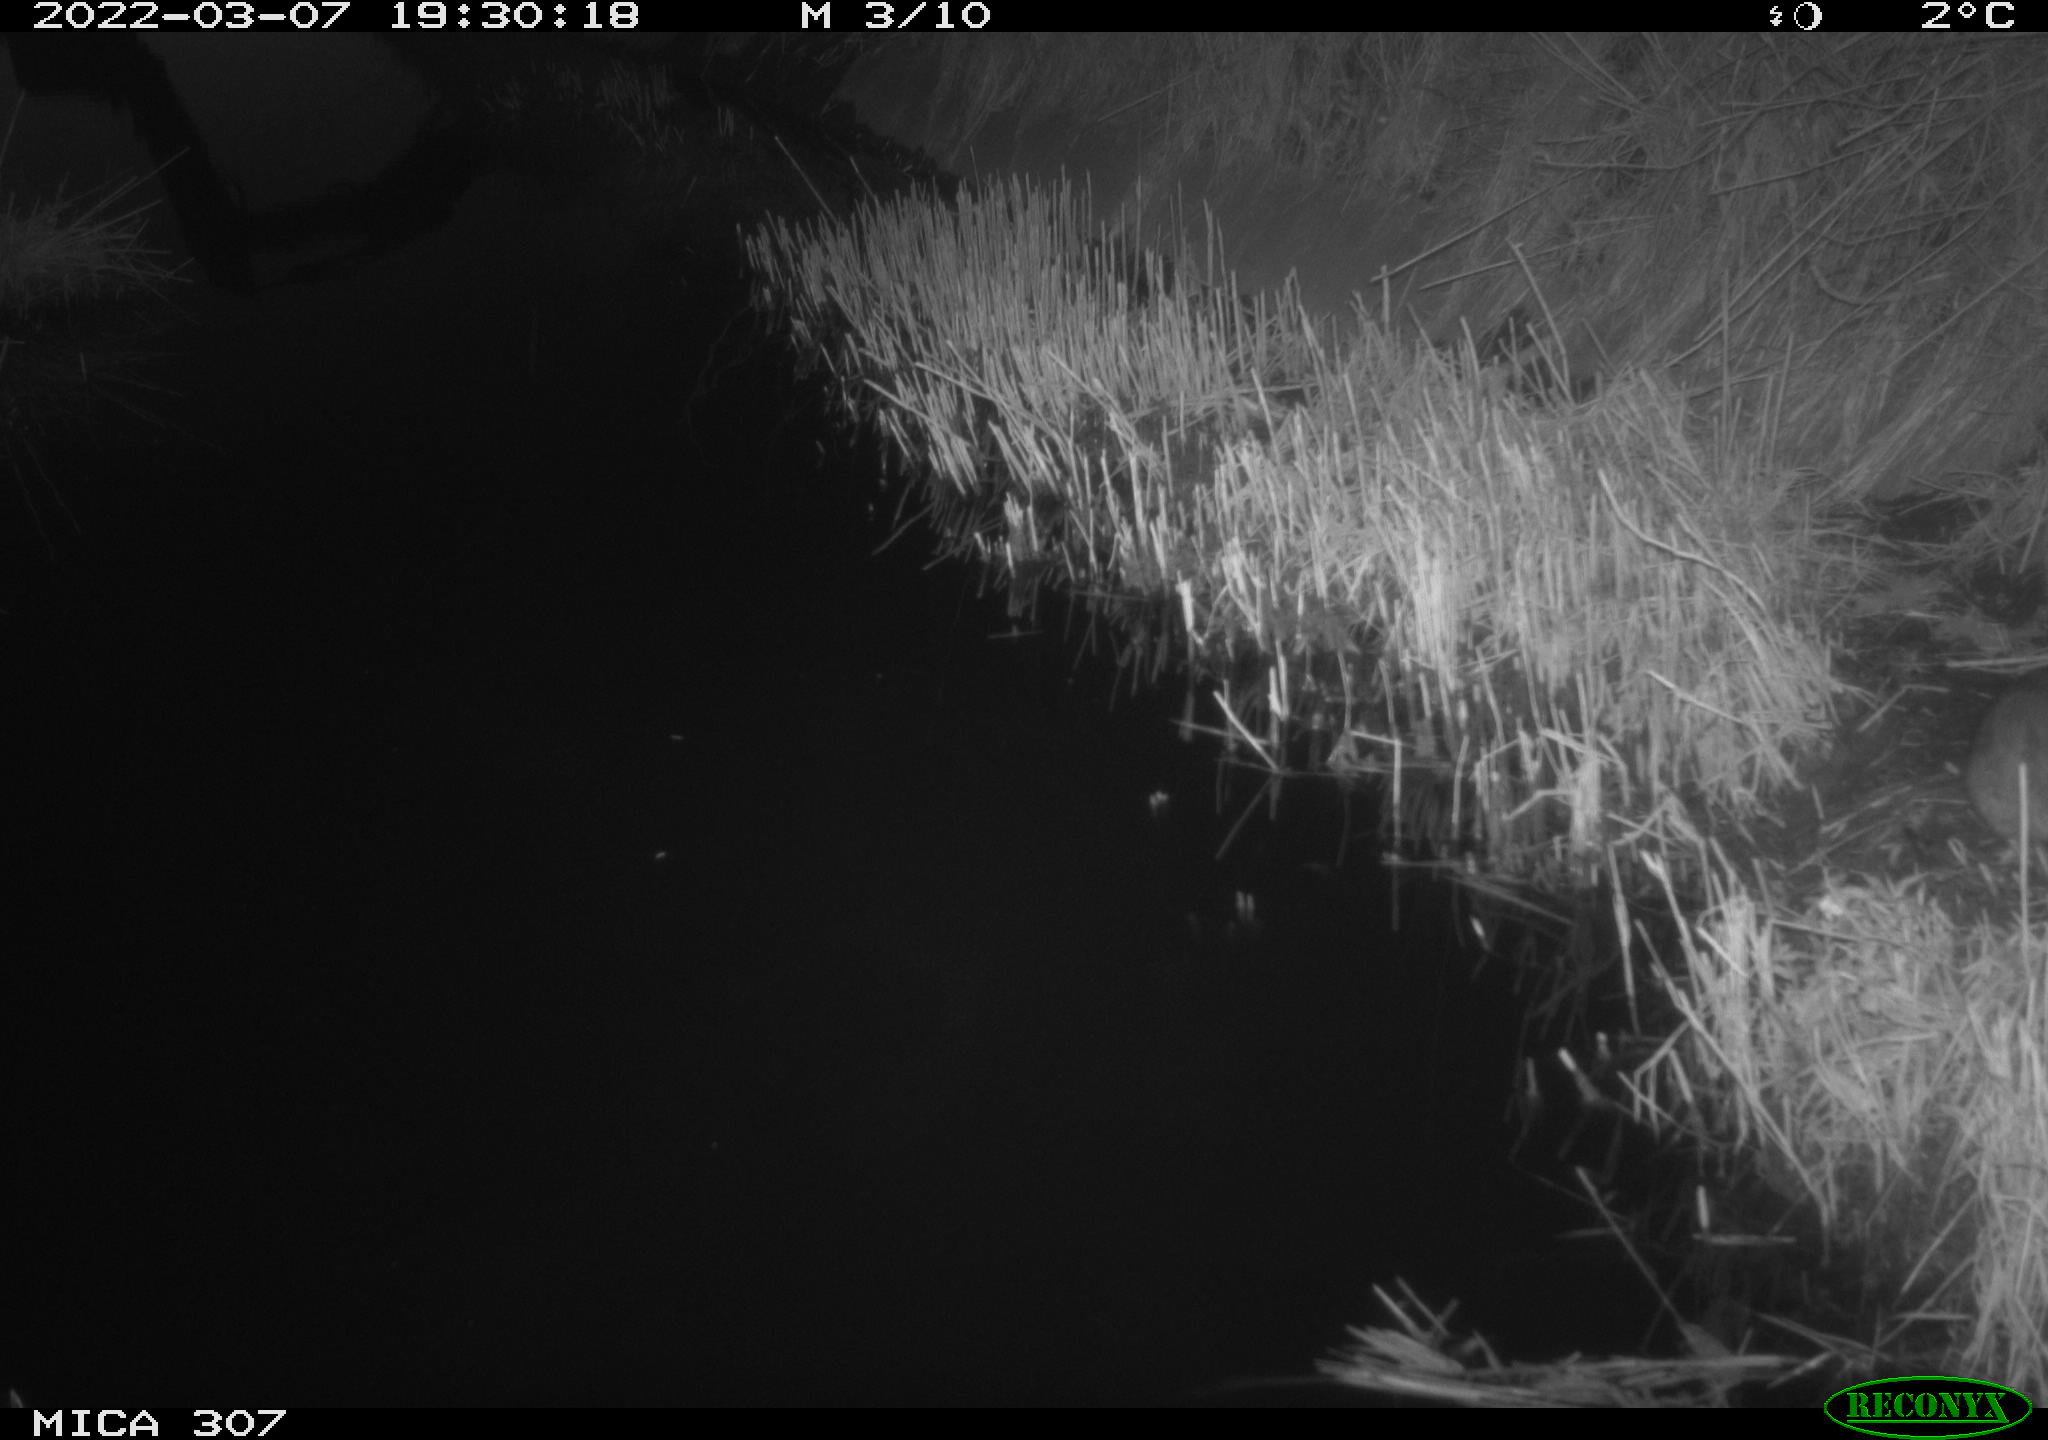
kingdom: Animalia
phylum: Chordata
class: Mammalia
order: Rodentia
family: Muridae
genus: Rattus
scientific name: Rattus norvegicus
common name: Brown rat
